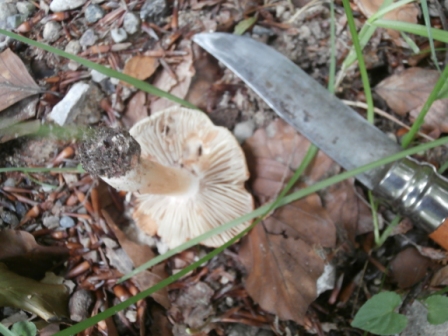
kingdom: Fungi
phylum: Basidiomycota
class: Agaricomycetes
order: Agaricales
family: Inocybaceae
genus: Inosperma
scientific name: Inosperma erubescens
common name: giftig trævlhat
